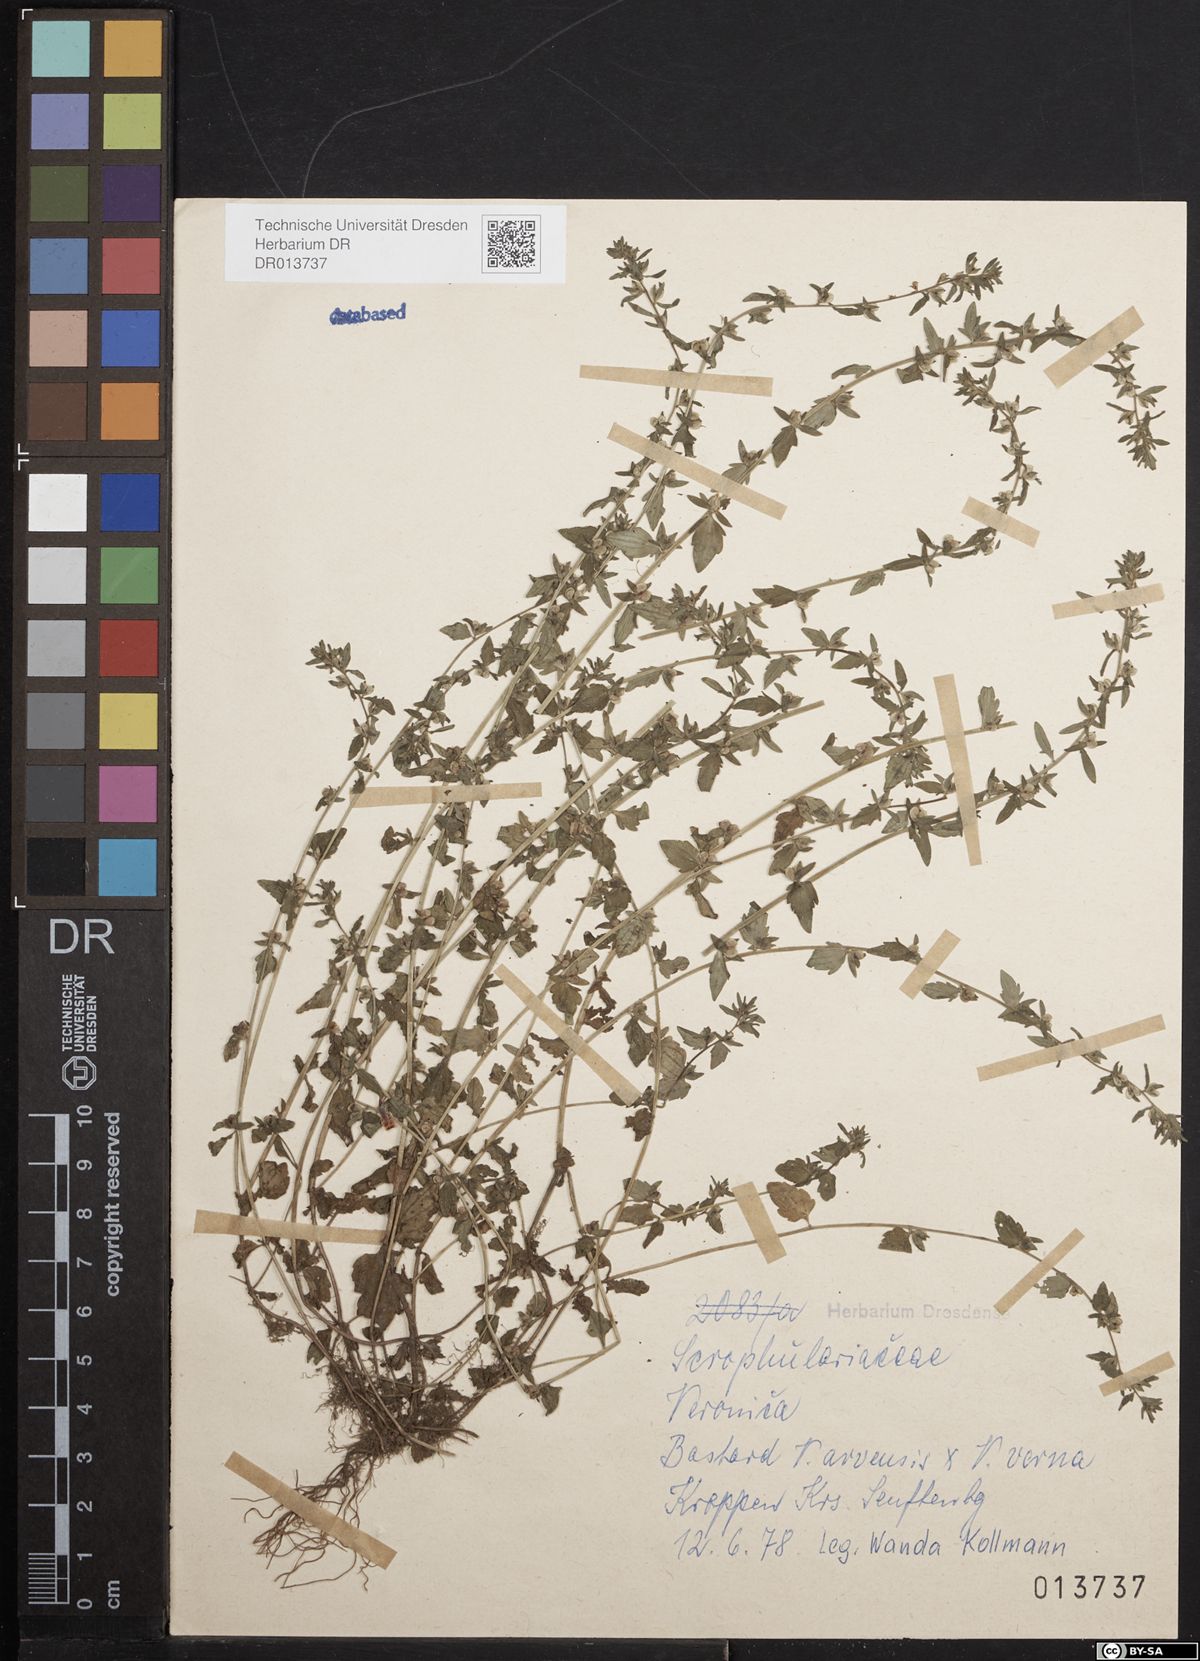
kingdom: Plantae
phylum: Tracheophyta
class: Magnoliopsida
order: Lamiales
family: Plantaginaceae
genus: Veronica
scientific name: Veronica arvensis
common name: Corn speedwell
